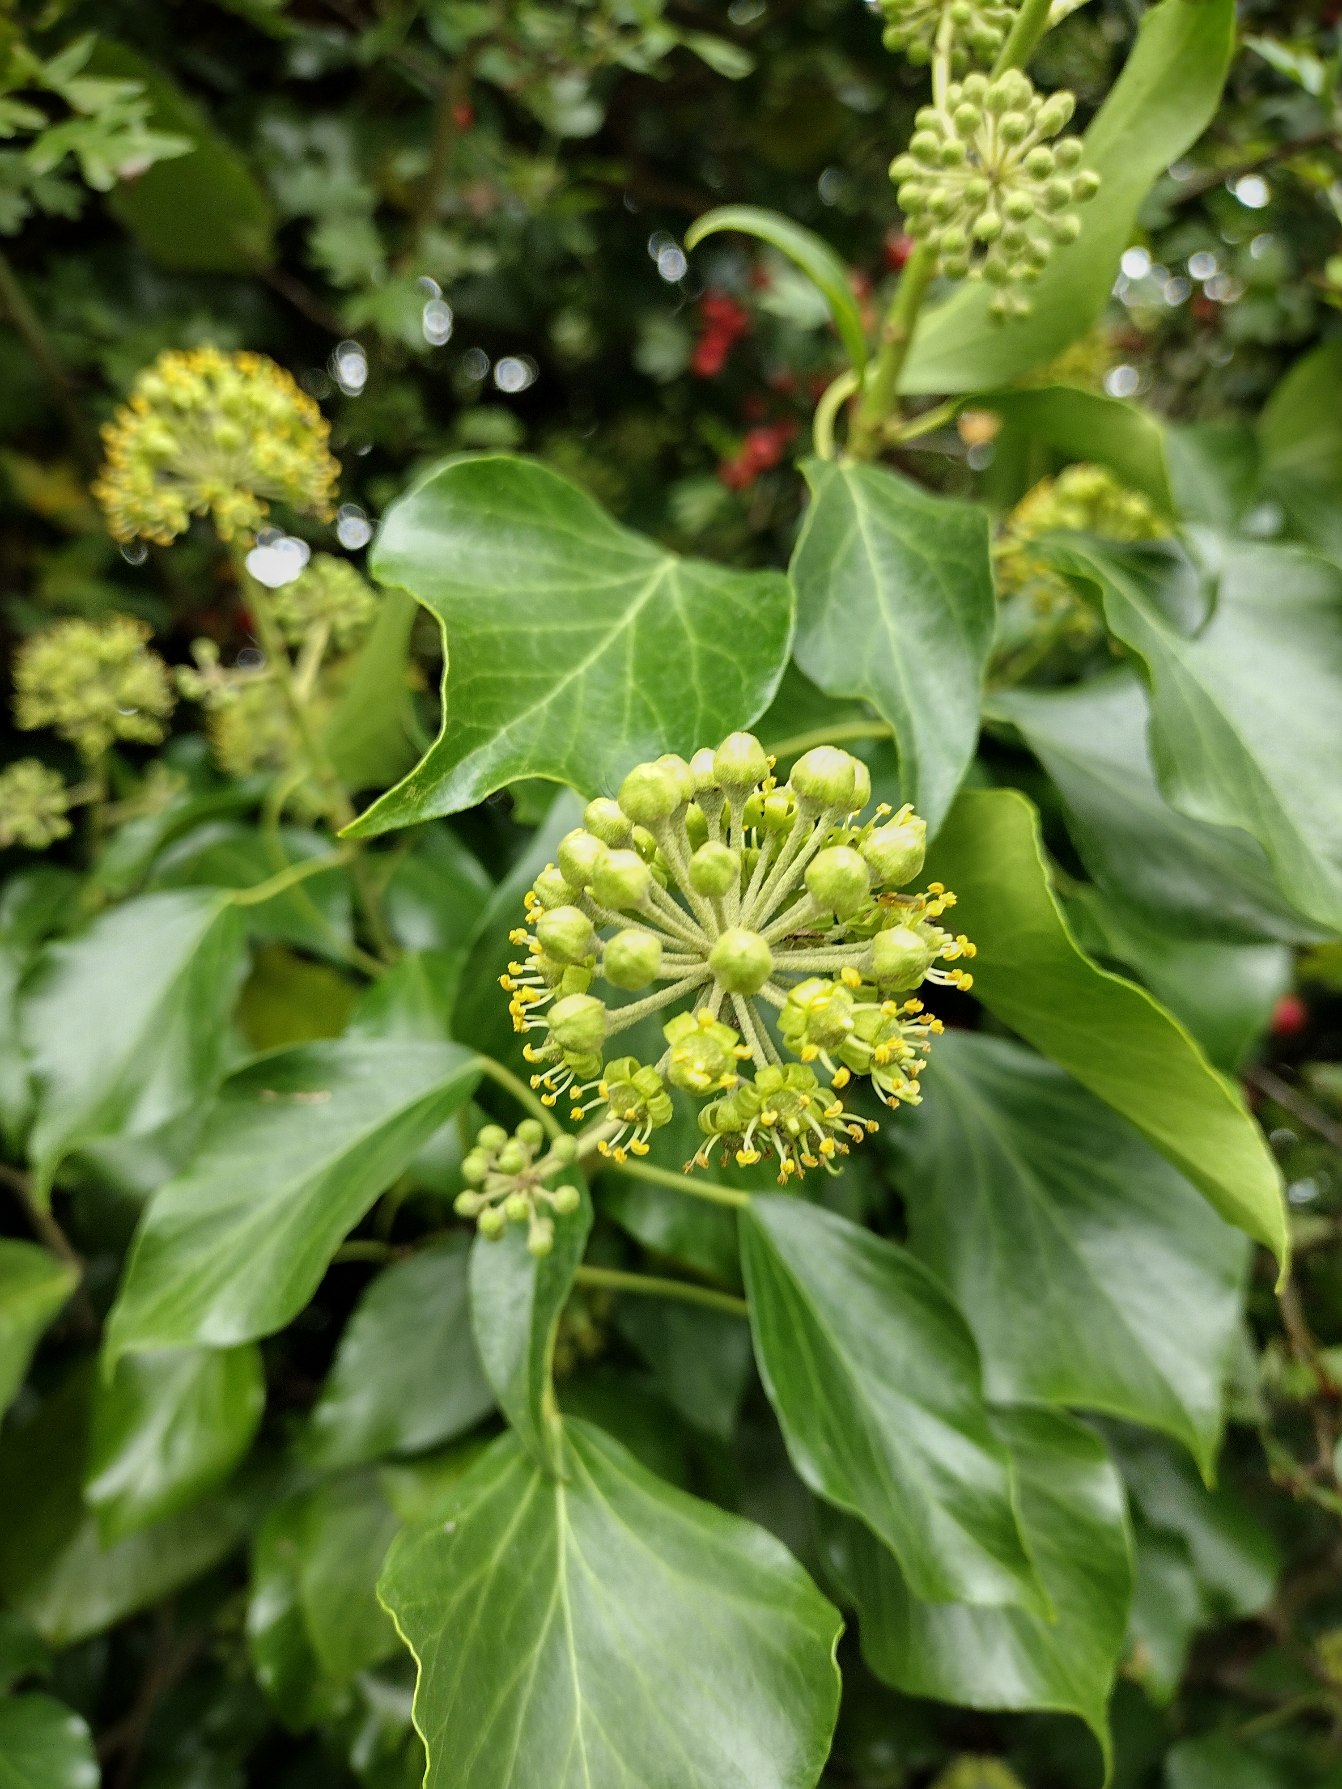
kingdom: Plantae
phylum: Tracheophyta
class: Magnoliopsida
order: Apiales
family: Araliaceae
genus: Hedera
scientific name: Hedera helix
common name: Vedbend
